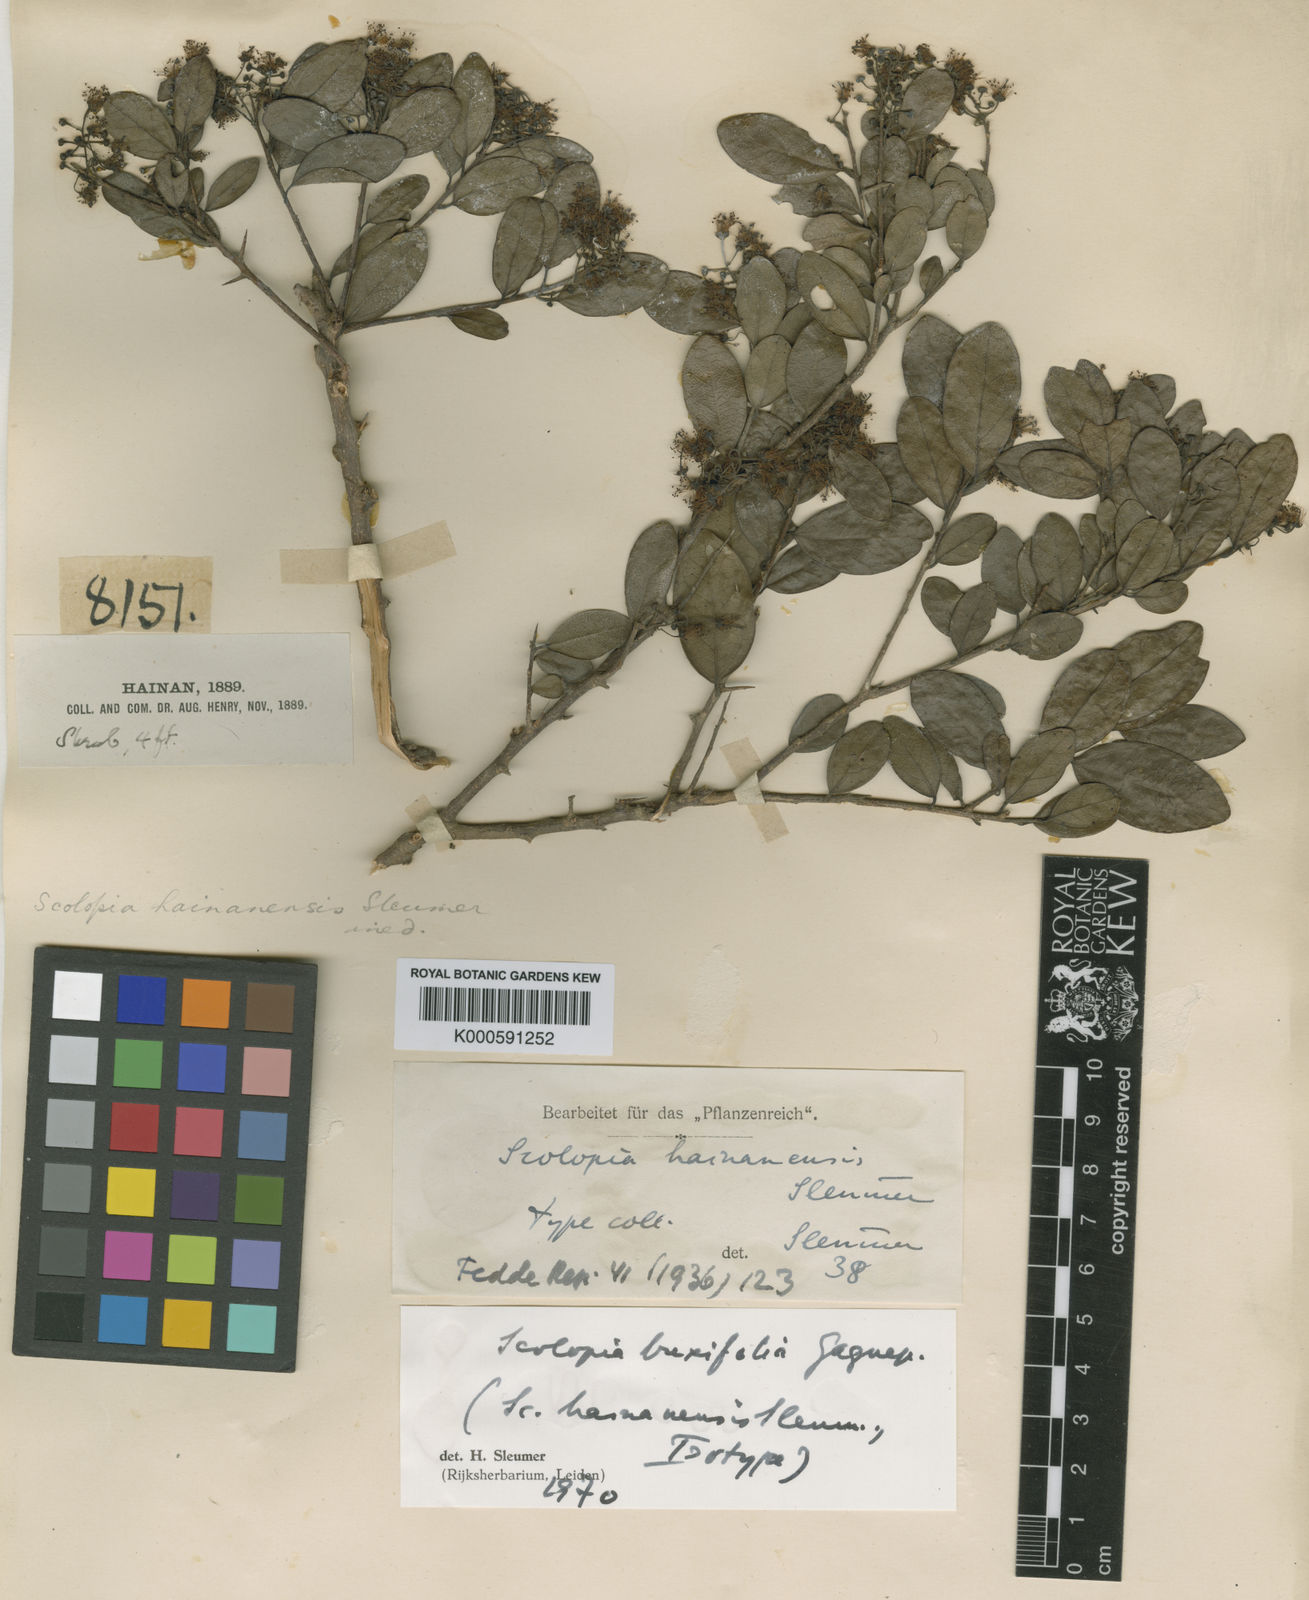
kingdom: Plantae
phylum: Tracheophyta
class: Magnoliopsida
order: Malpighiales
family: Salicaceae
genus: Scolopia
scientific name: Scolopia buxifolia
